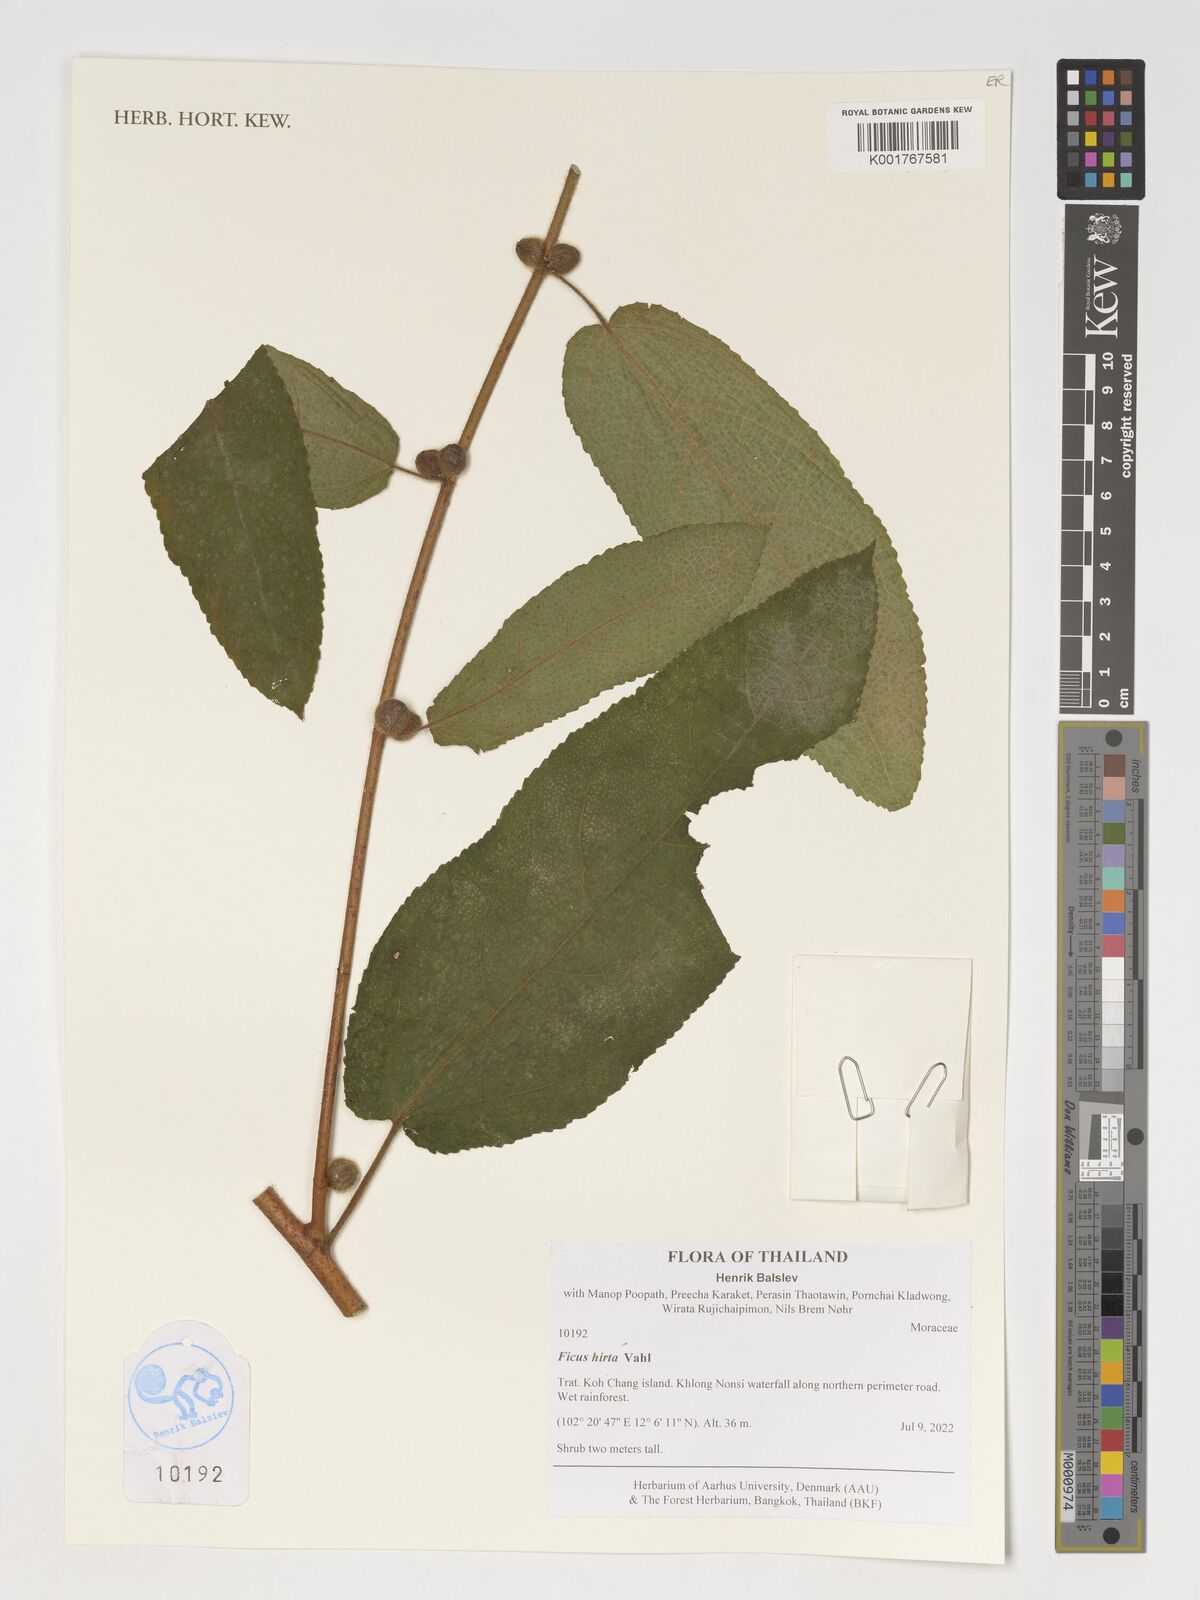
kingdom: Plantae
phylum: Tracheophyta
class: Magnoliopsida
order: Rosales
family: Moraceae
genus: Ficus
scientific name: Ficus simplicissima
